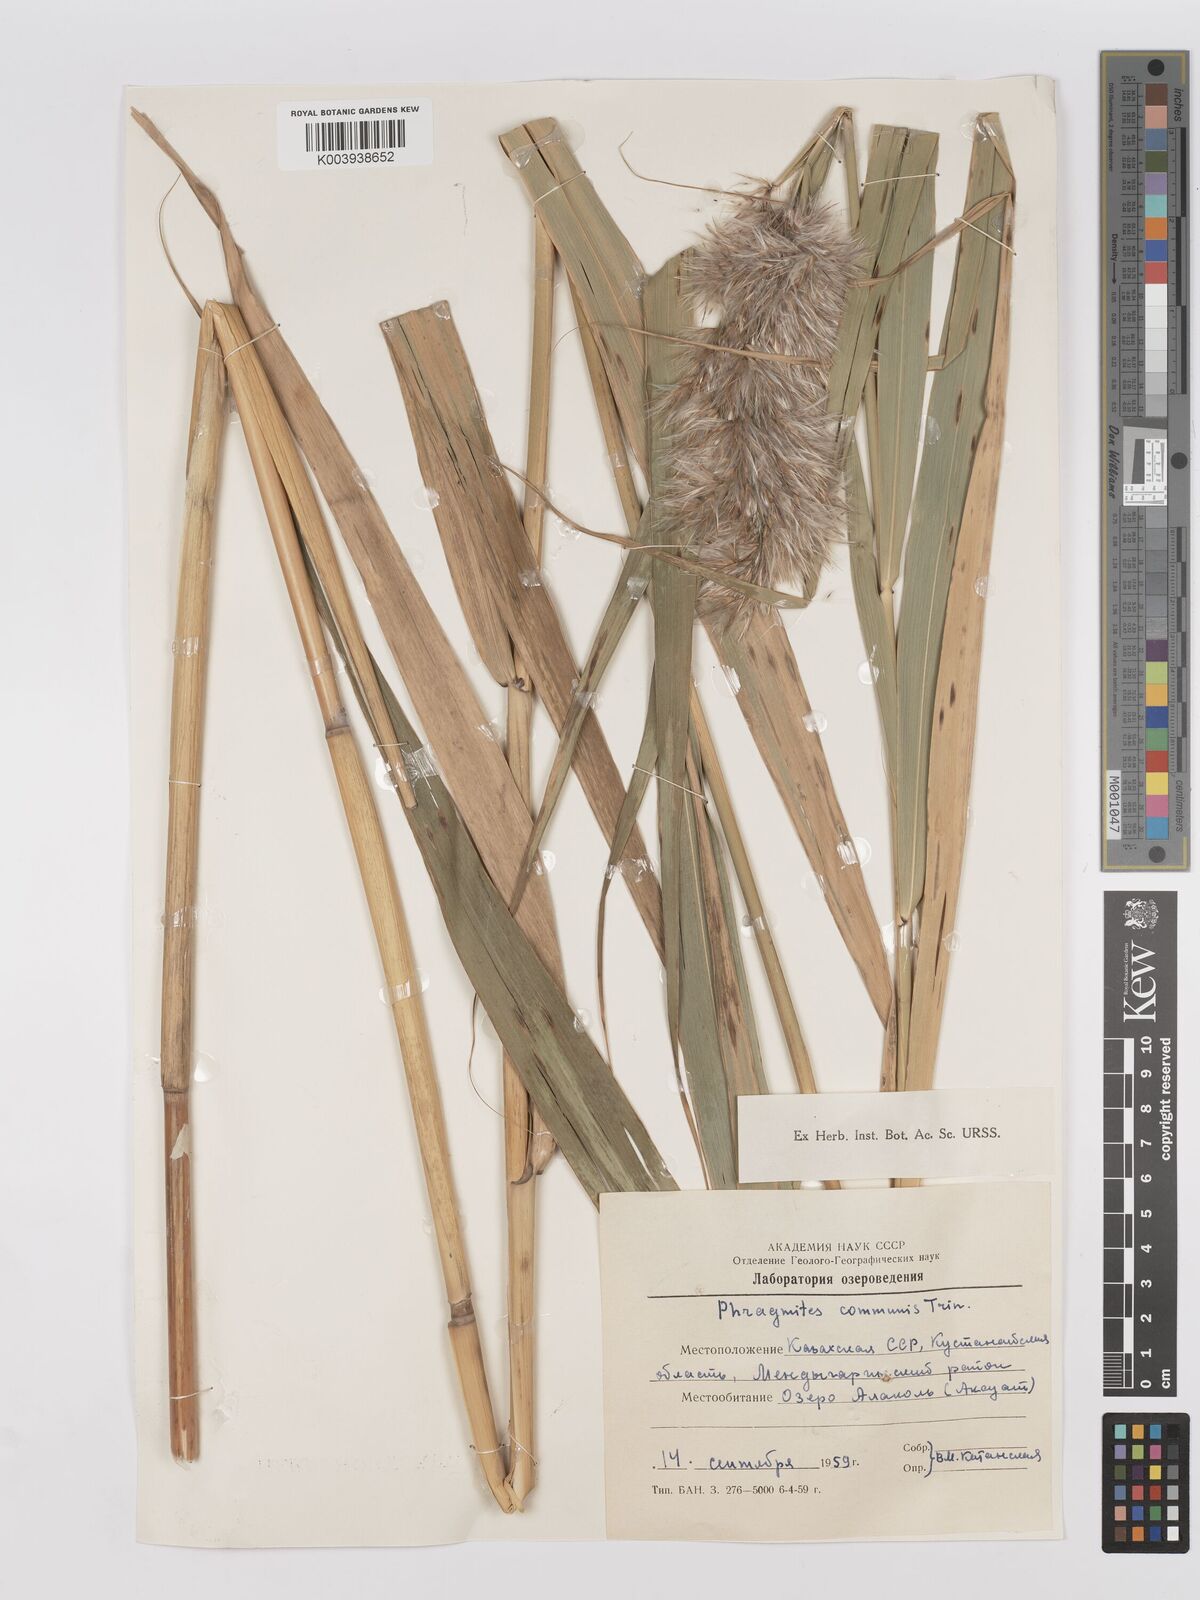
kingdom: Plantae
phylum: Tracheophyta
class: Liliopsida
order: Poales
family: Poaceae
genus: Phragmites
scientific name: Phragmites australis
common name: Common reed
